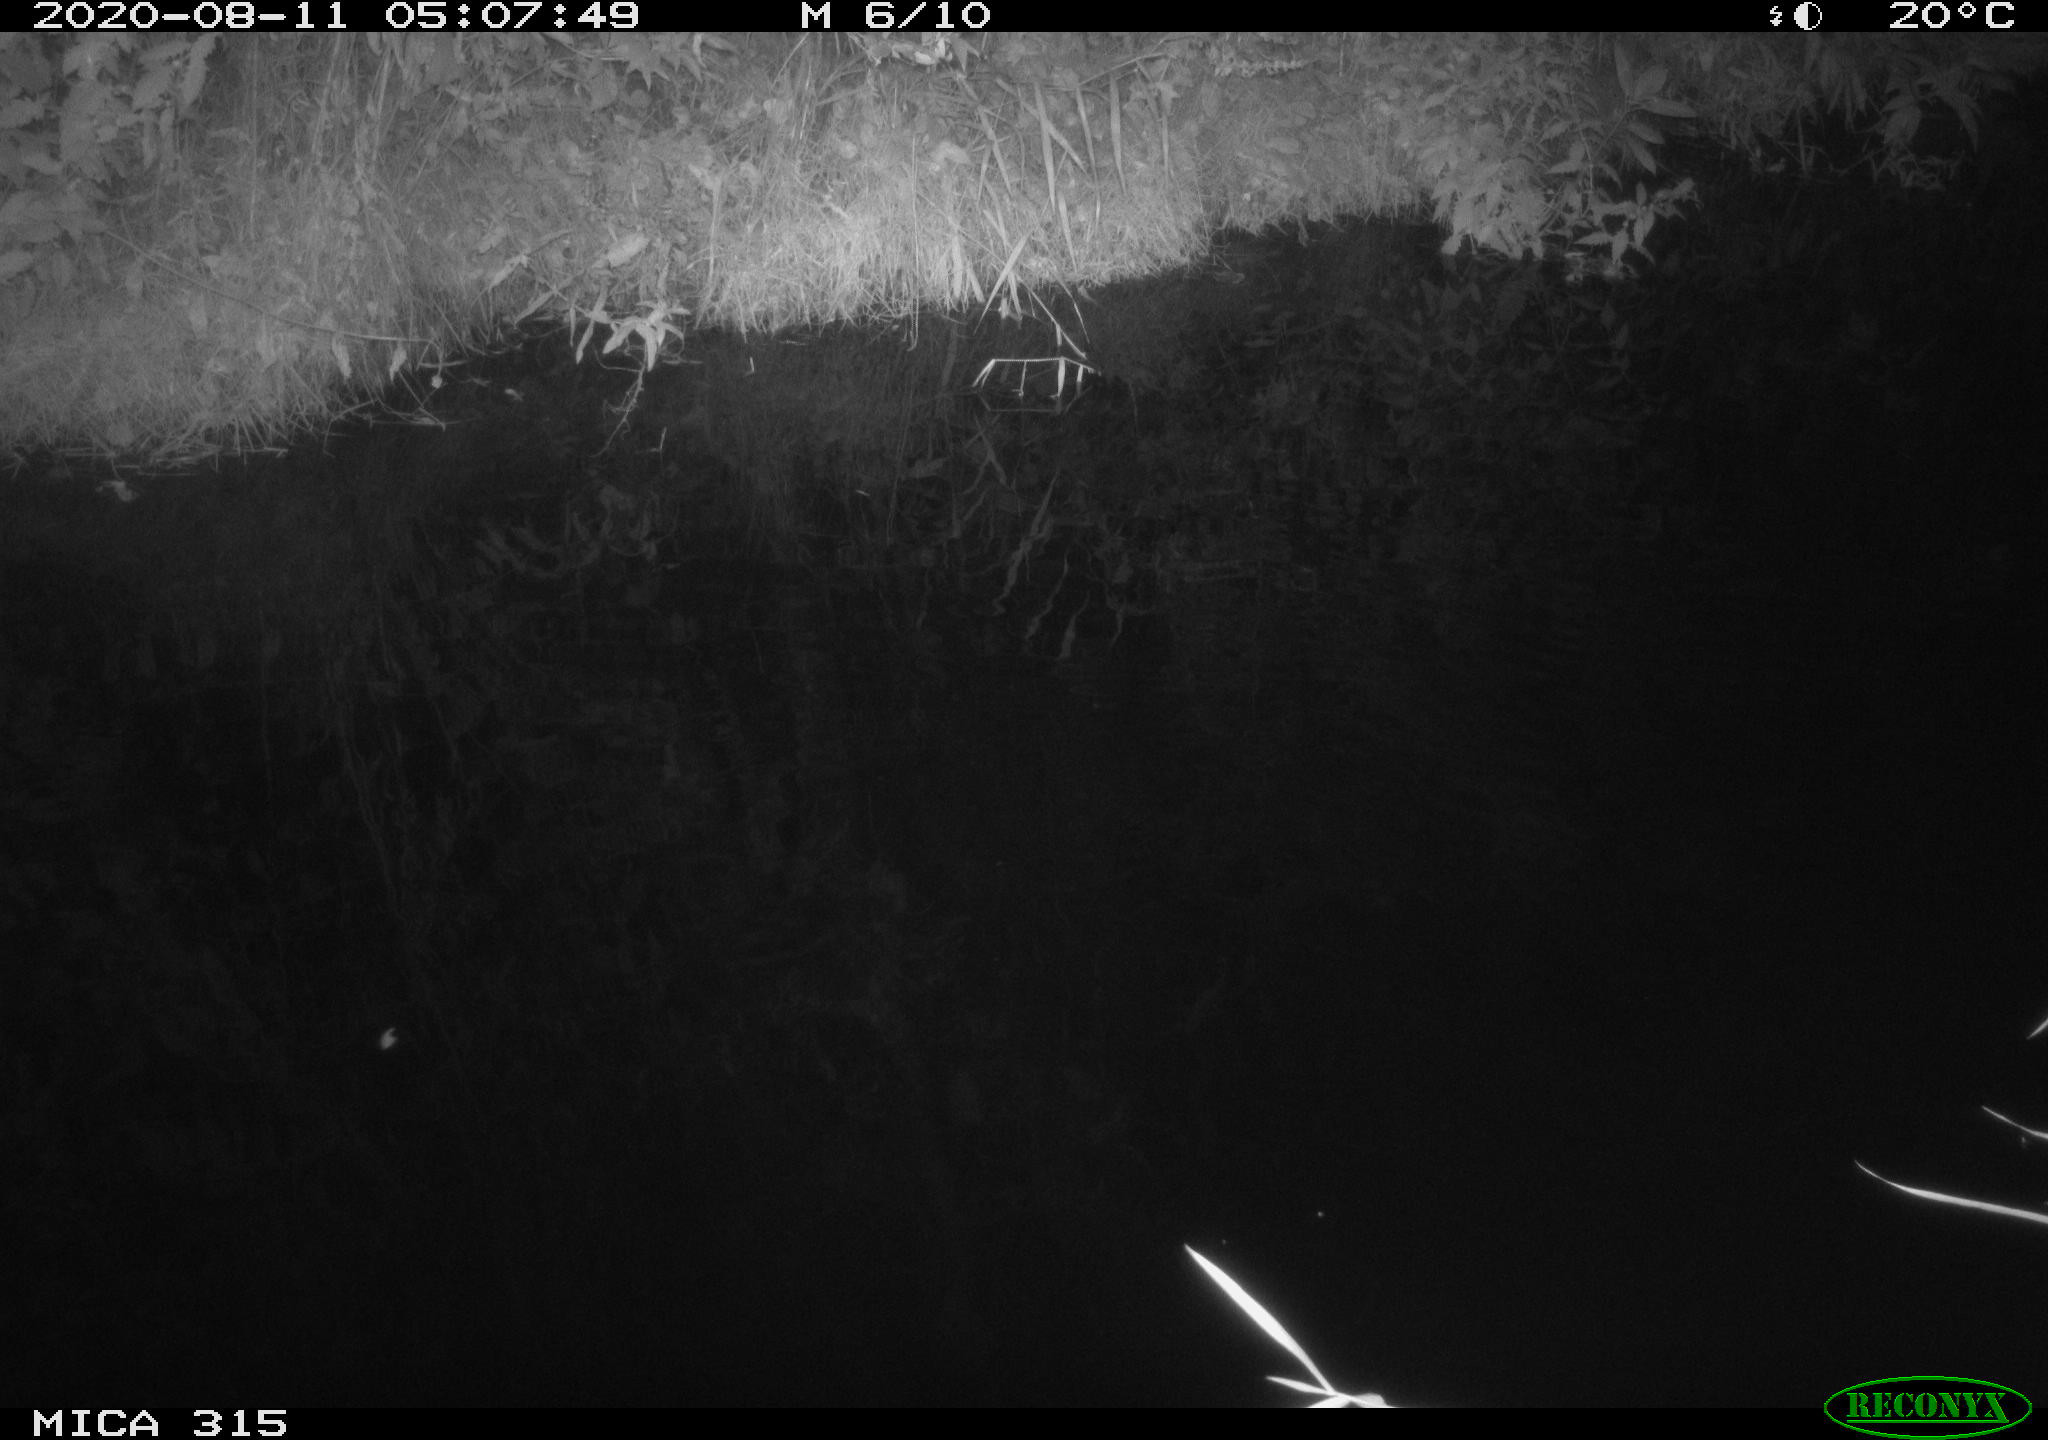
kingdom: Animalia
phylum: Chordata
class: Aves
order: Anseriformes
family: Anatidae
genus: Anas
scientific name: Anas platyrhynchos
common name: Mallard
